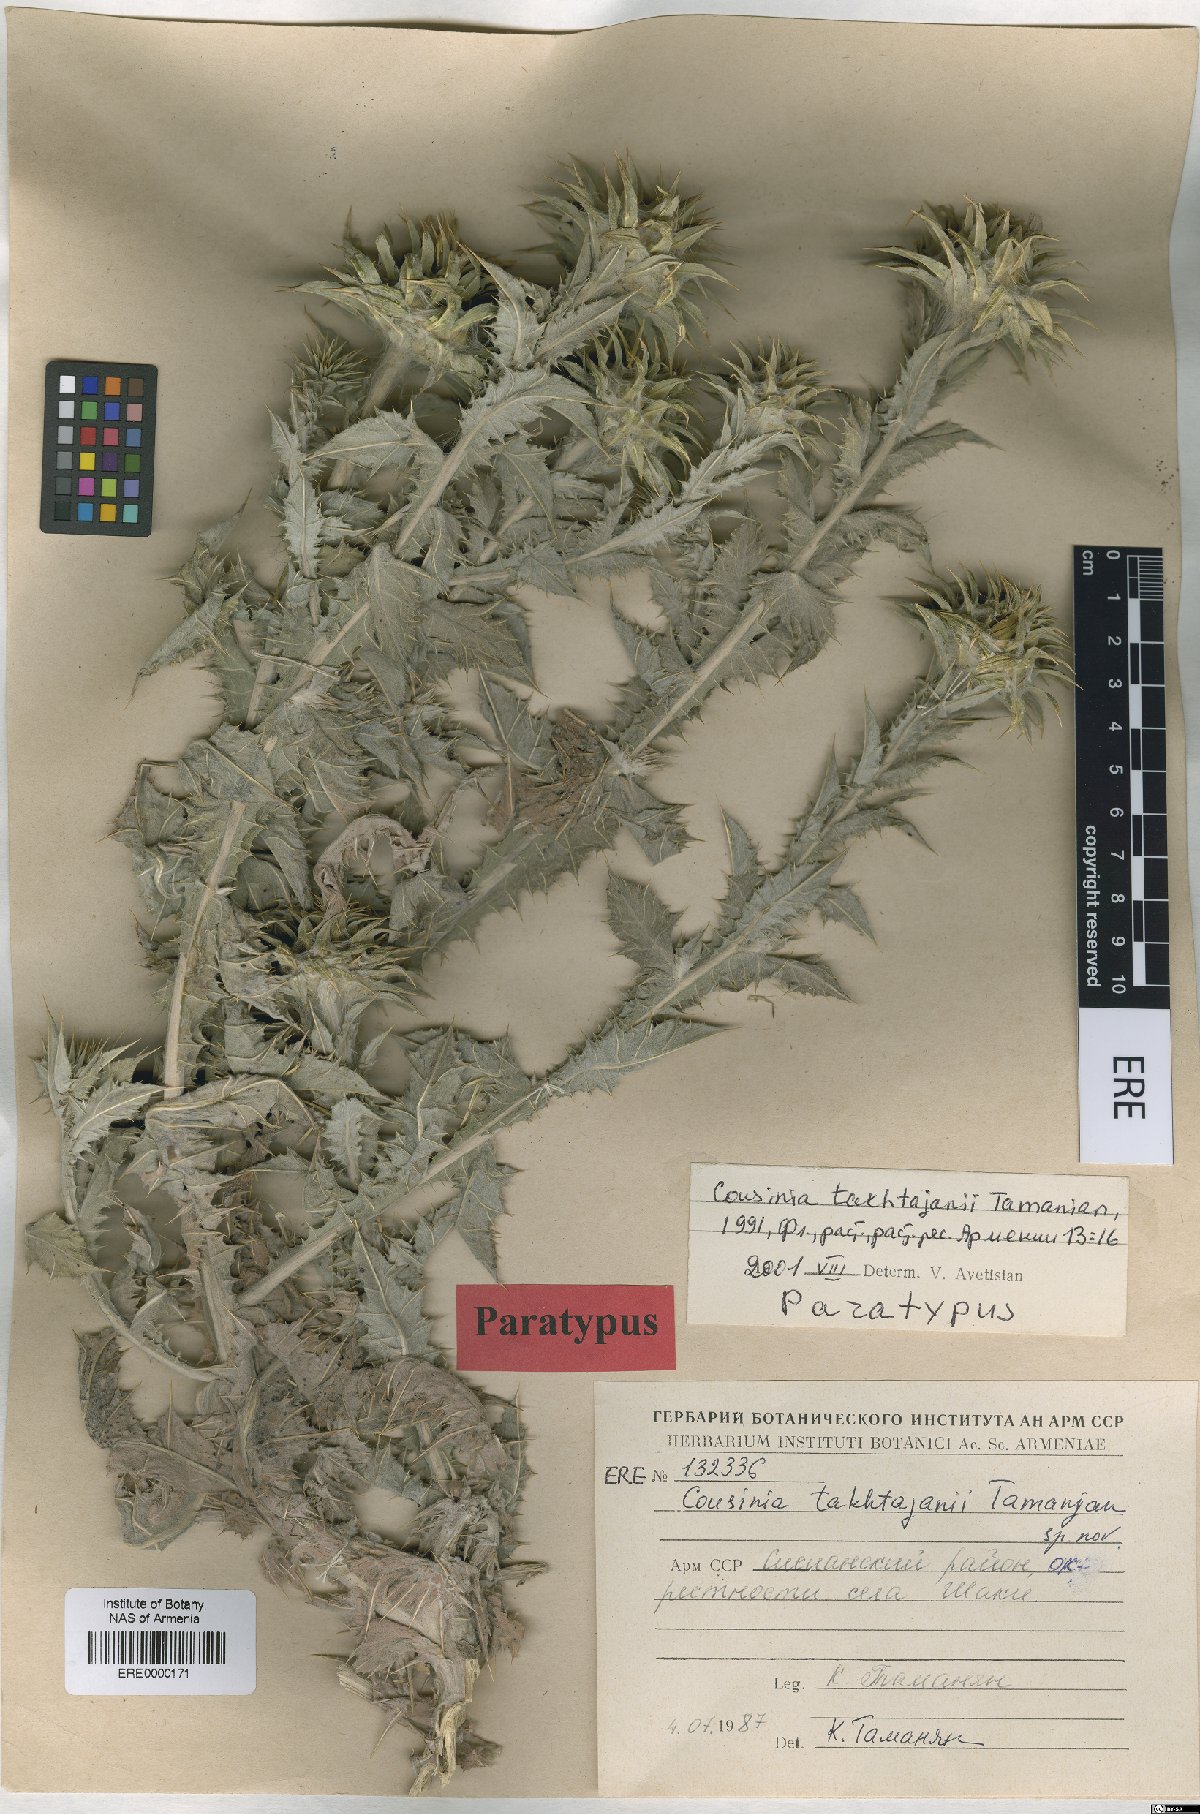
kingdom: Plantae
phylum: Tracheophyta
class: Magnoliopsida
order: Asterales
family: Asteraceae
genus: Cousinia
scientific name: Cousinia macrocephala
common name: Macrocephalous cousinia
